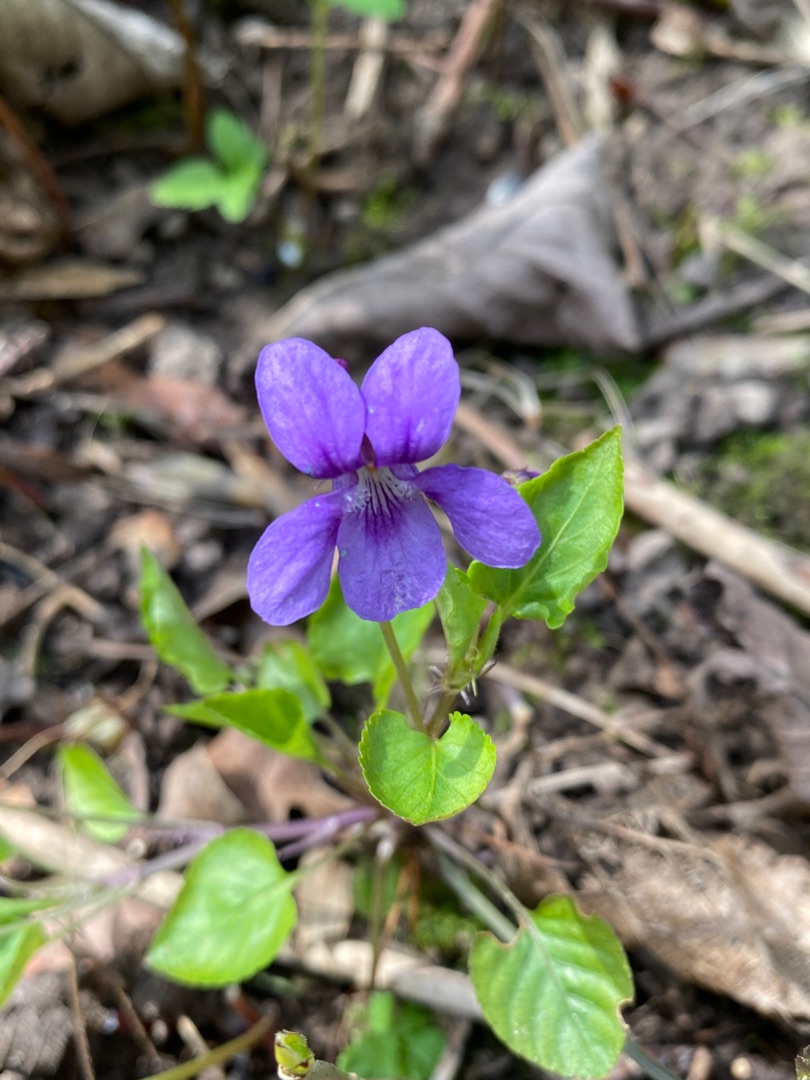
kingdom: Plantae
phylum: Tracheophyta
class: Magnoliopsida
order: Malpighiales
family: Violaceae
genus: Viola
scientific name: Viola reichenbachiana
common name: Skov-viol
